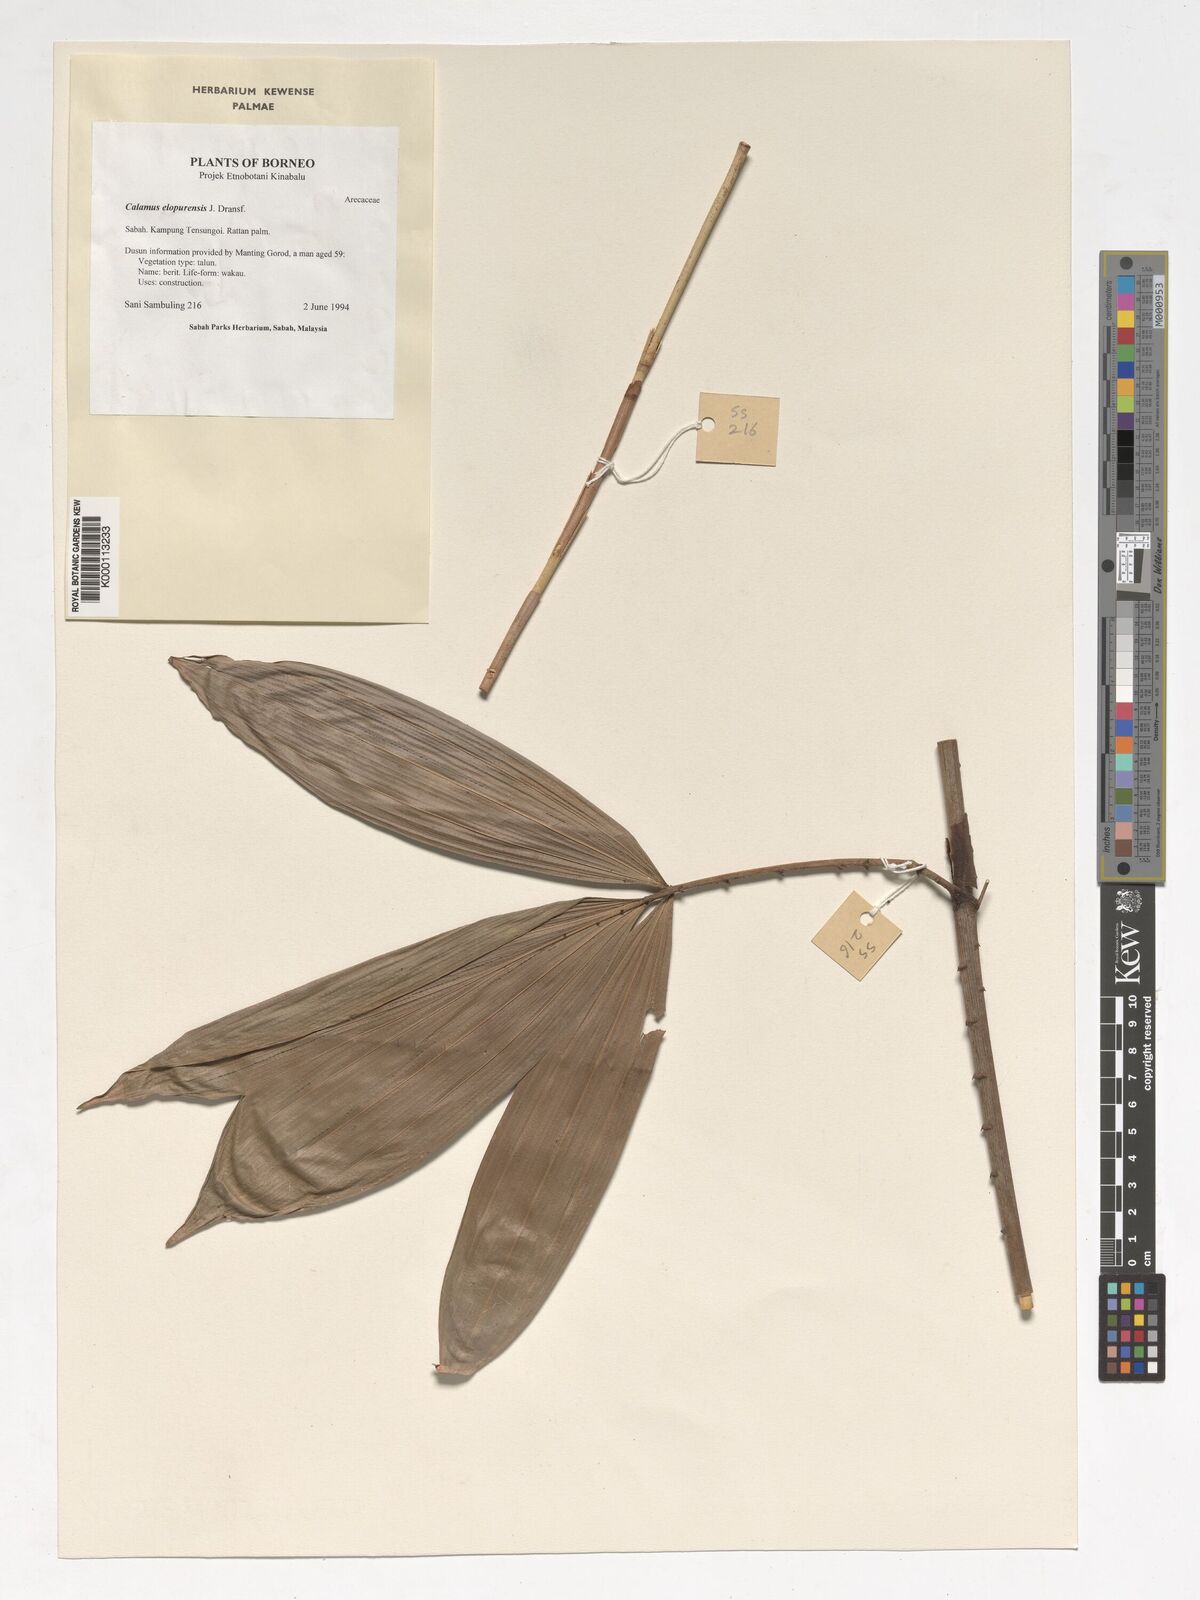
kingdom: Plantae
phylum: Tracheophyta
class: Liliopsida
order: Arecales
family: Arecaceae
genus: Calamus
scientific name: Calamus javensis
